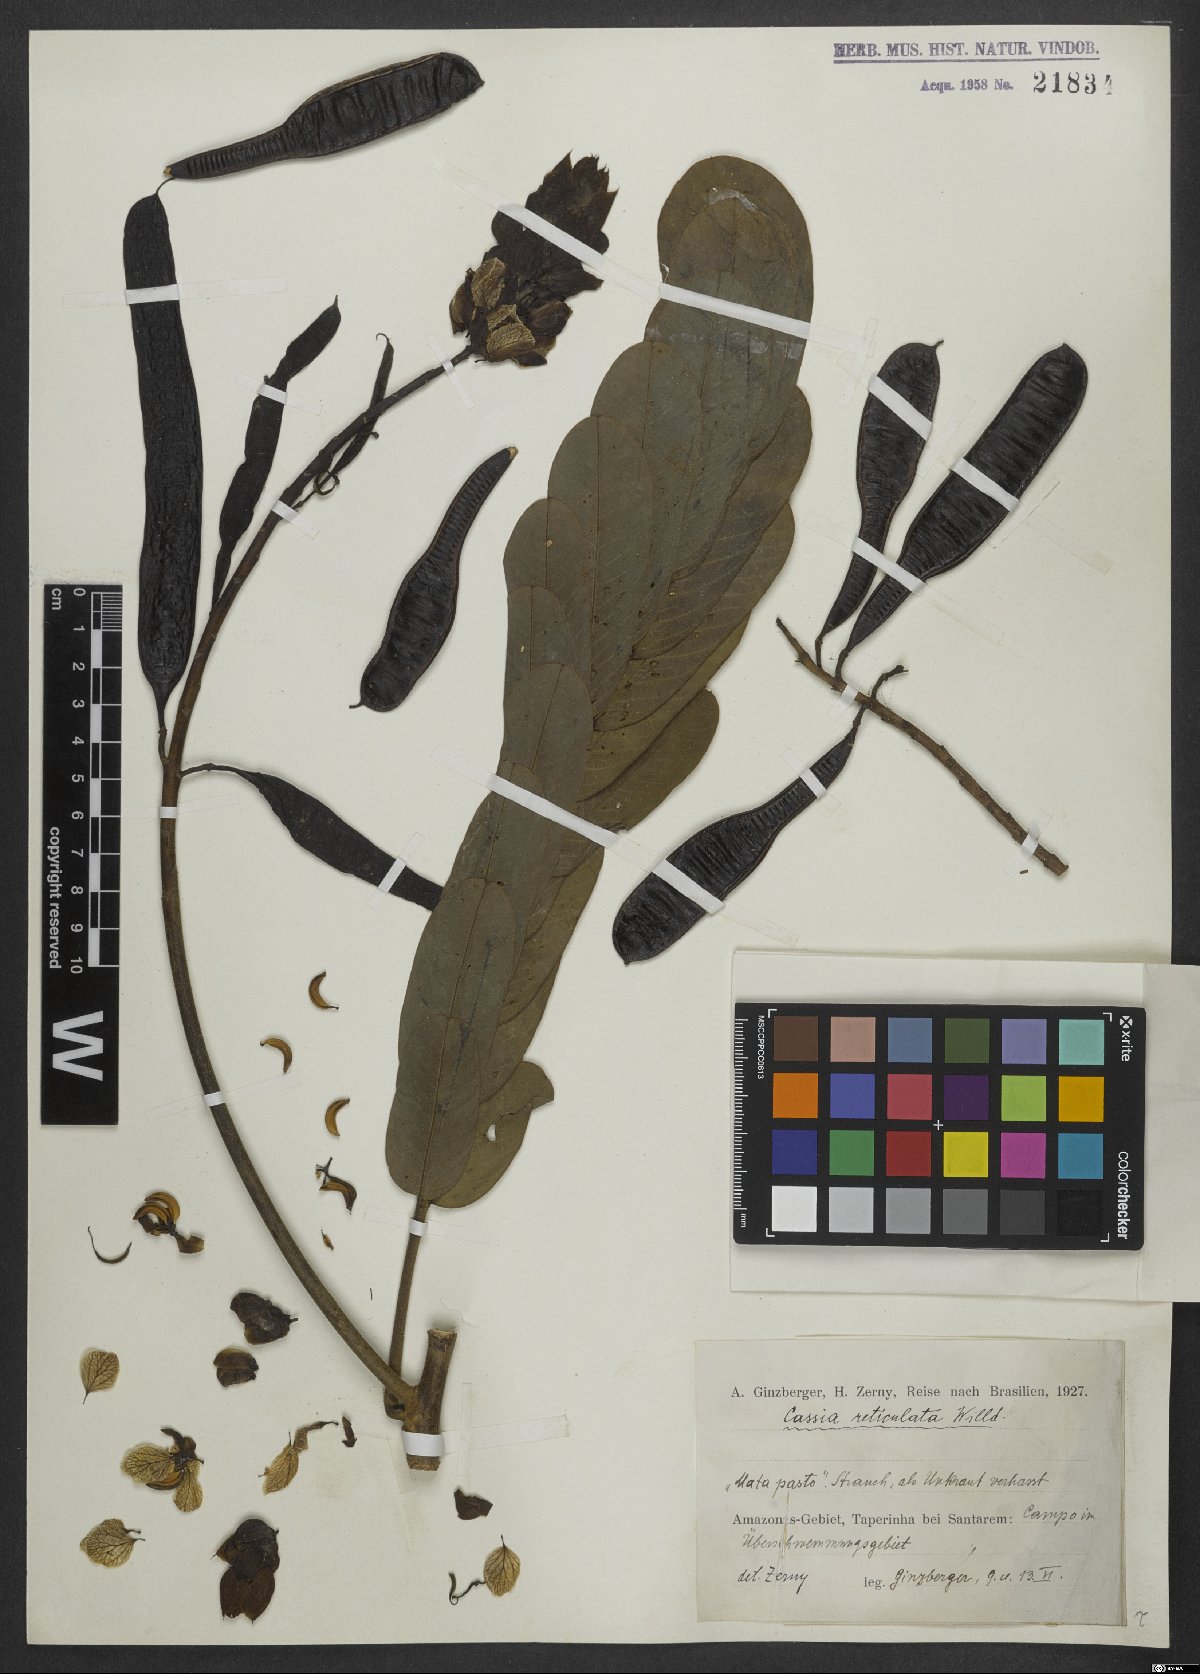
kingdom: Plantae
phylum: Tracheophyta
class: Magnoliopsida
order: Fabales
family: Fabaceae
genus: Senna
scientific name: Senna reticulata
